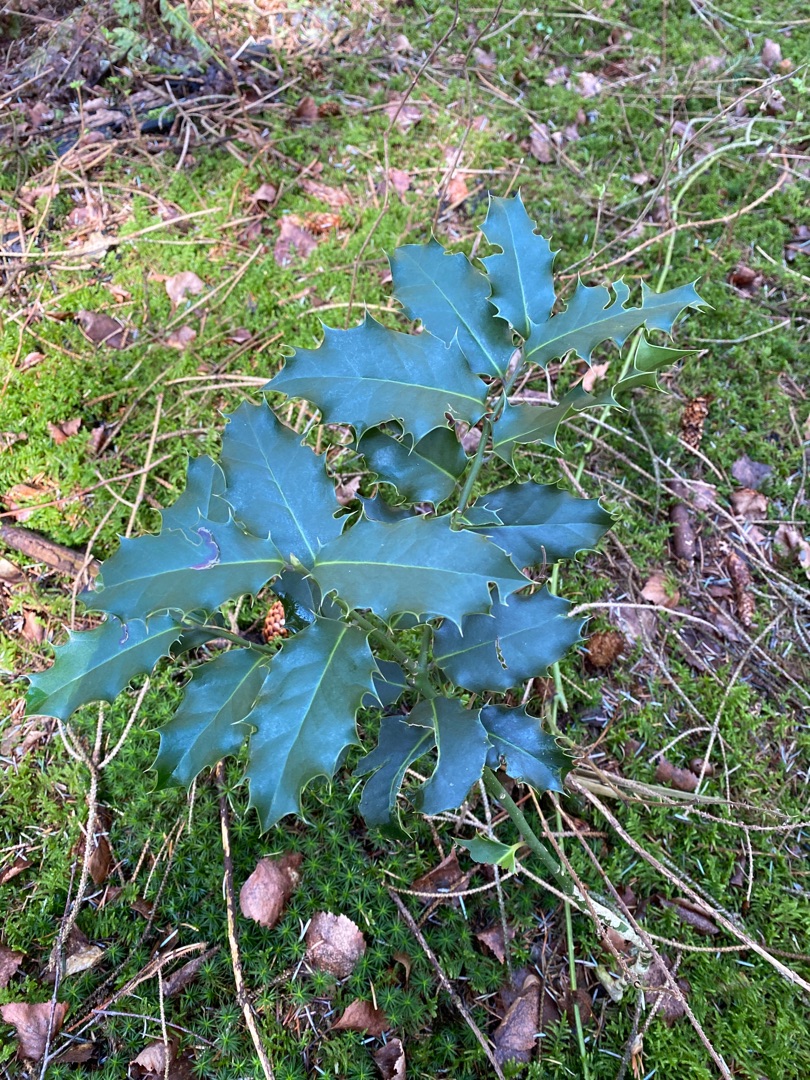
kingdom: Plantae
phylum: Tracheophyta
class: Magnoliopsida
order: Aquifoliales
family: Aquifoliaceae
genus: Ilex
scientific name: Ilex aquifolium
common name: Kristtorn
